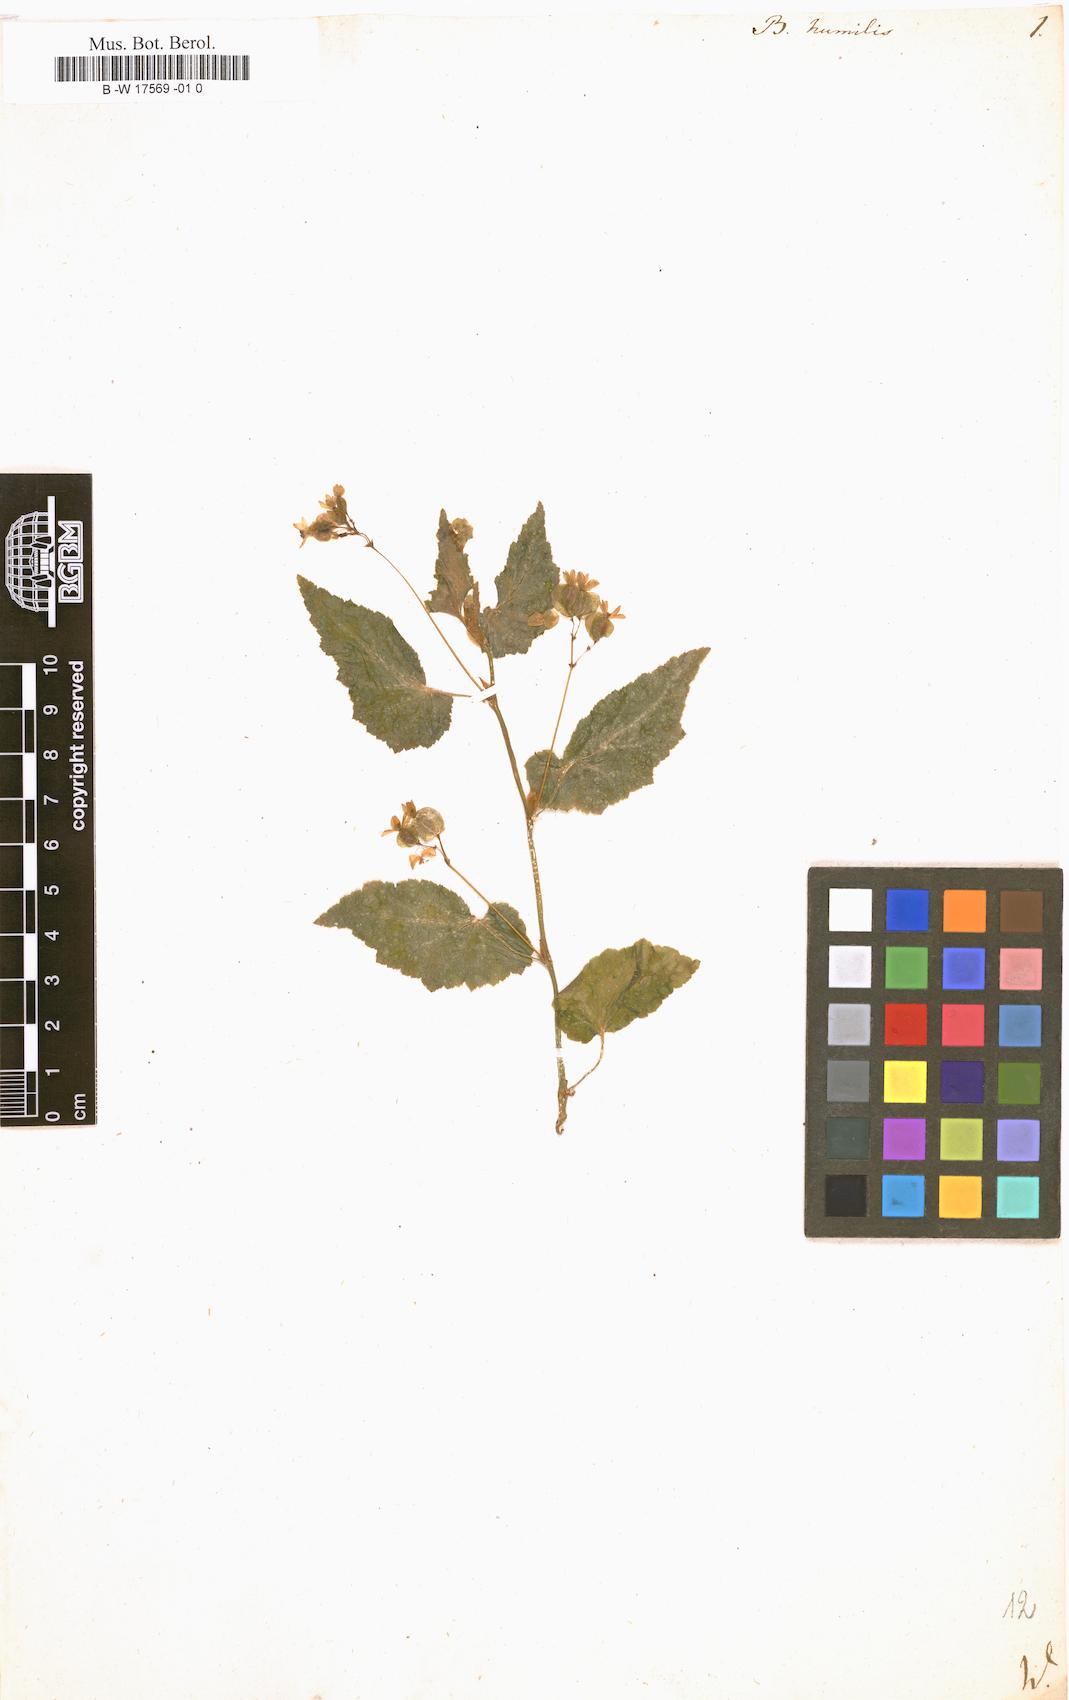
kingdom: Plantae
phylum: Tracheophyta
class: Magnoliopsida
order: Cucurbitales
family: Begoniaceae
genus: Begonia
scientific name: Begonia semiovata
